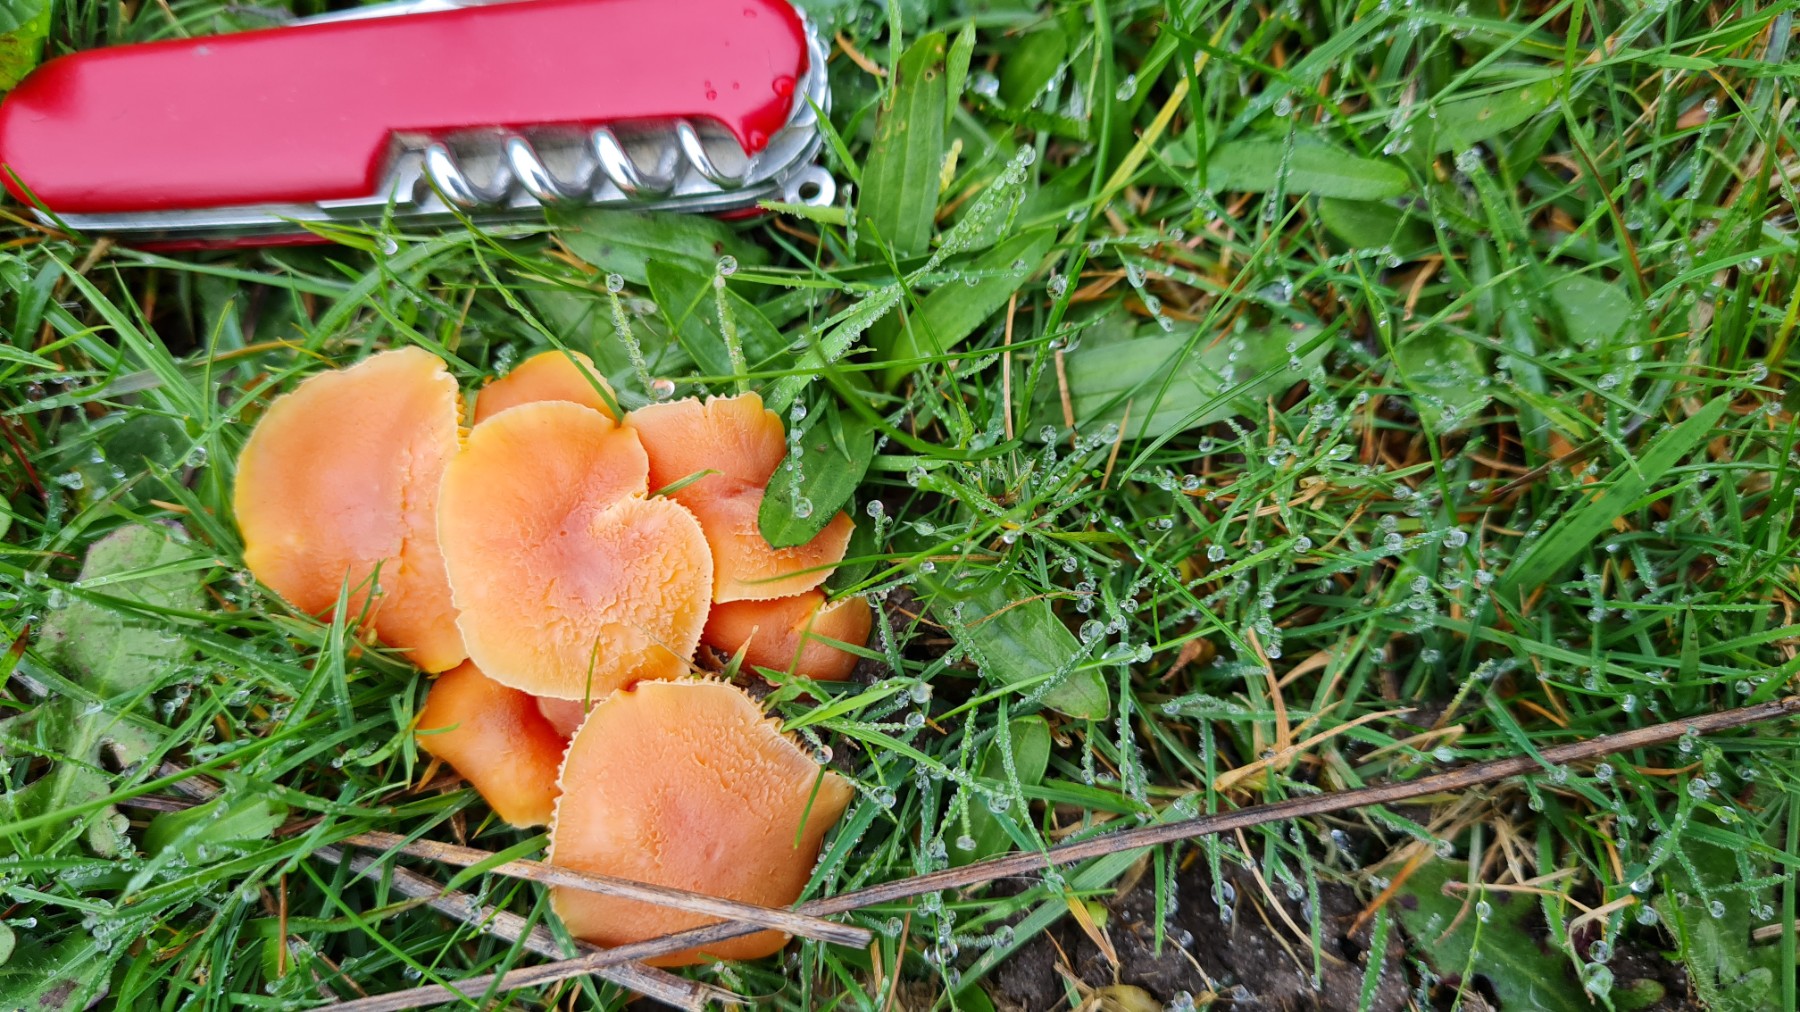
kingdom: Fungi
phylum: Basidiomycota
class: Agaricomycetes
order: Agaricales
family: Hygrophoraceae
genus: Hygrocybe
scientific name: Hygrocybe miniata
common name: mønje-vokshat
